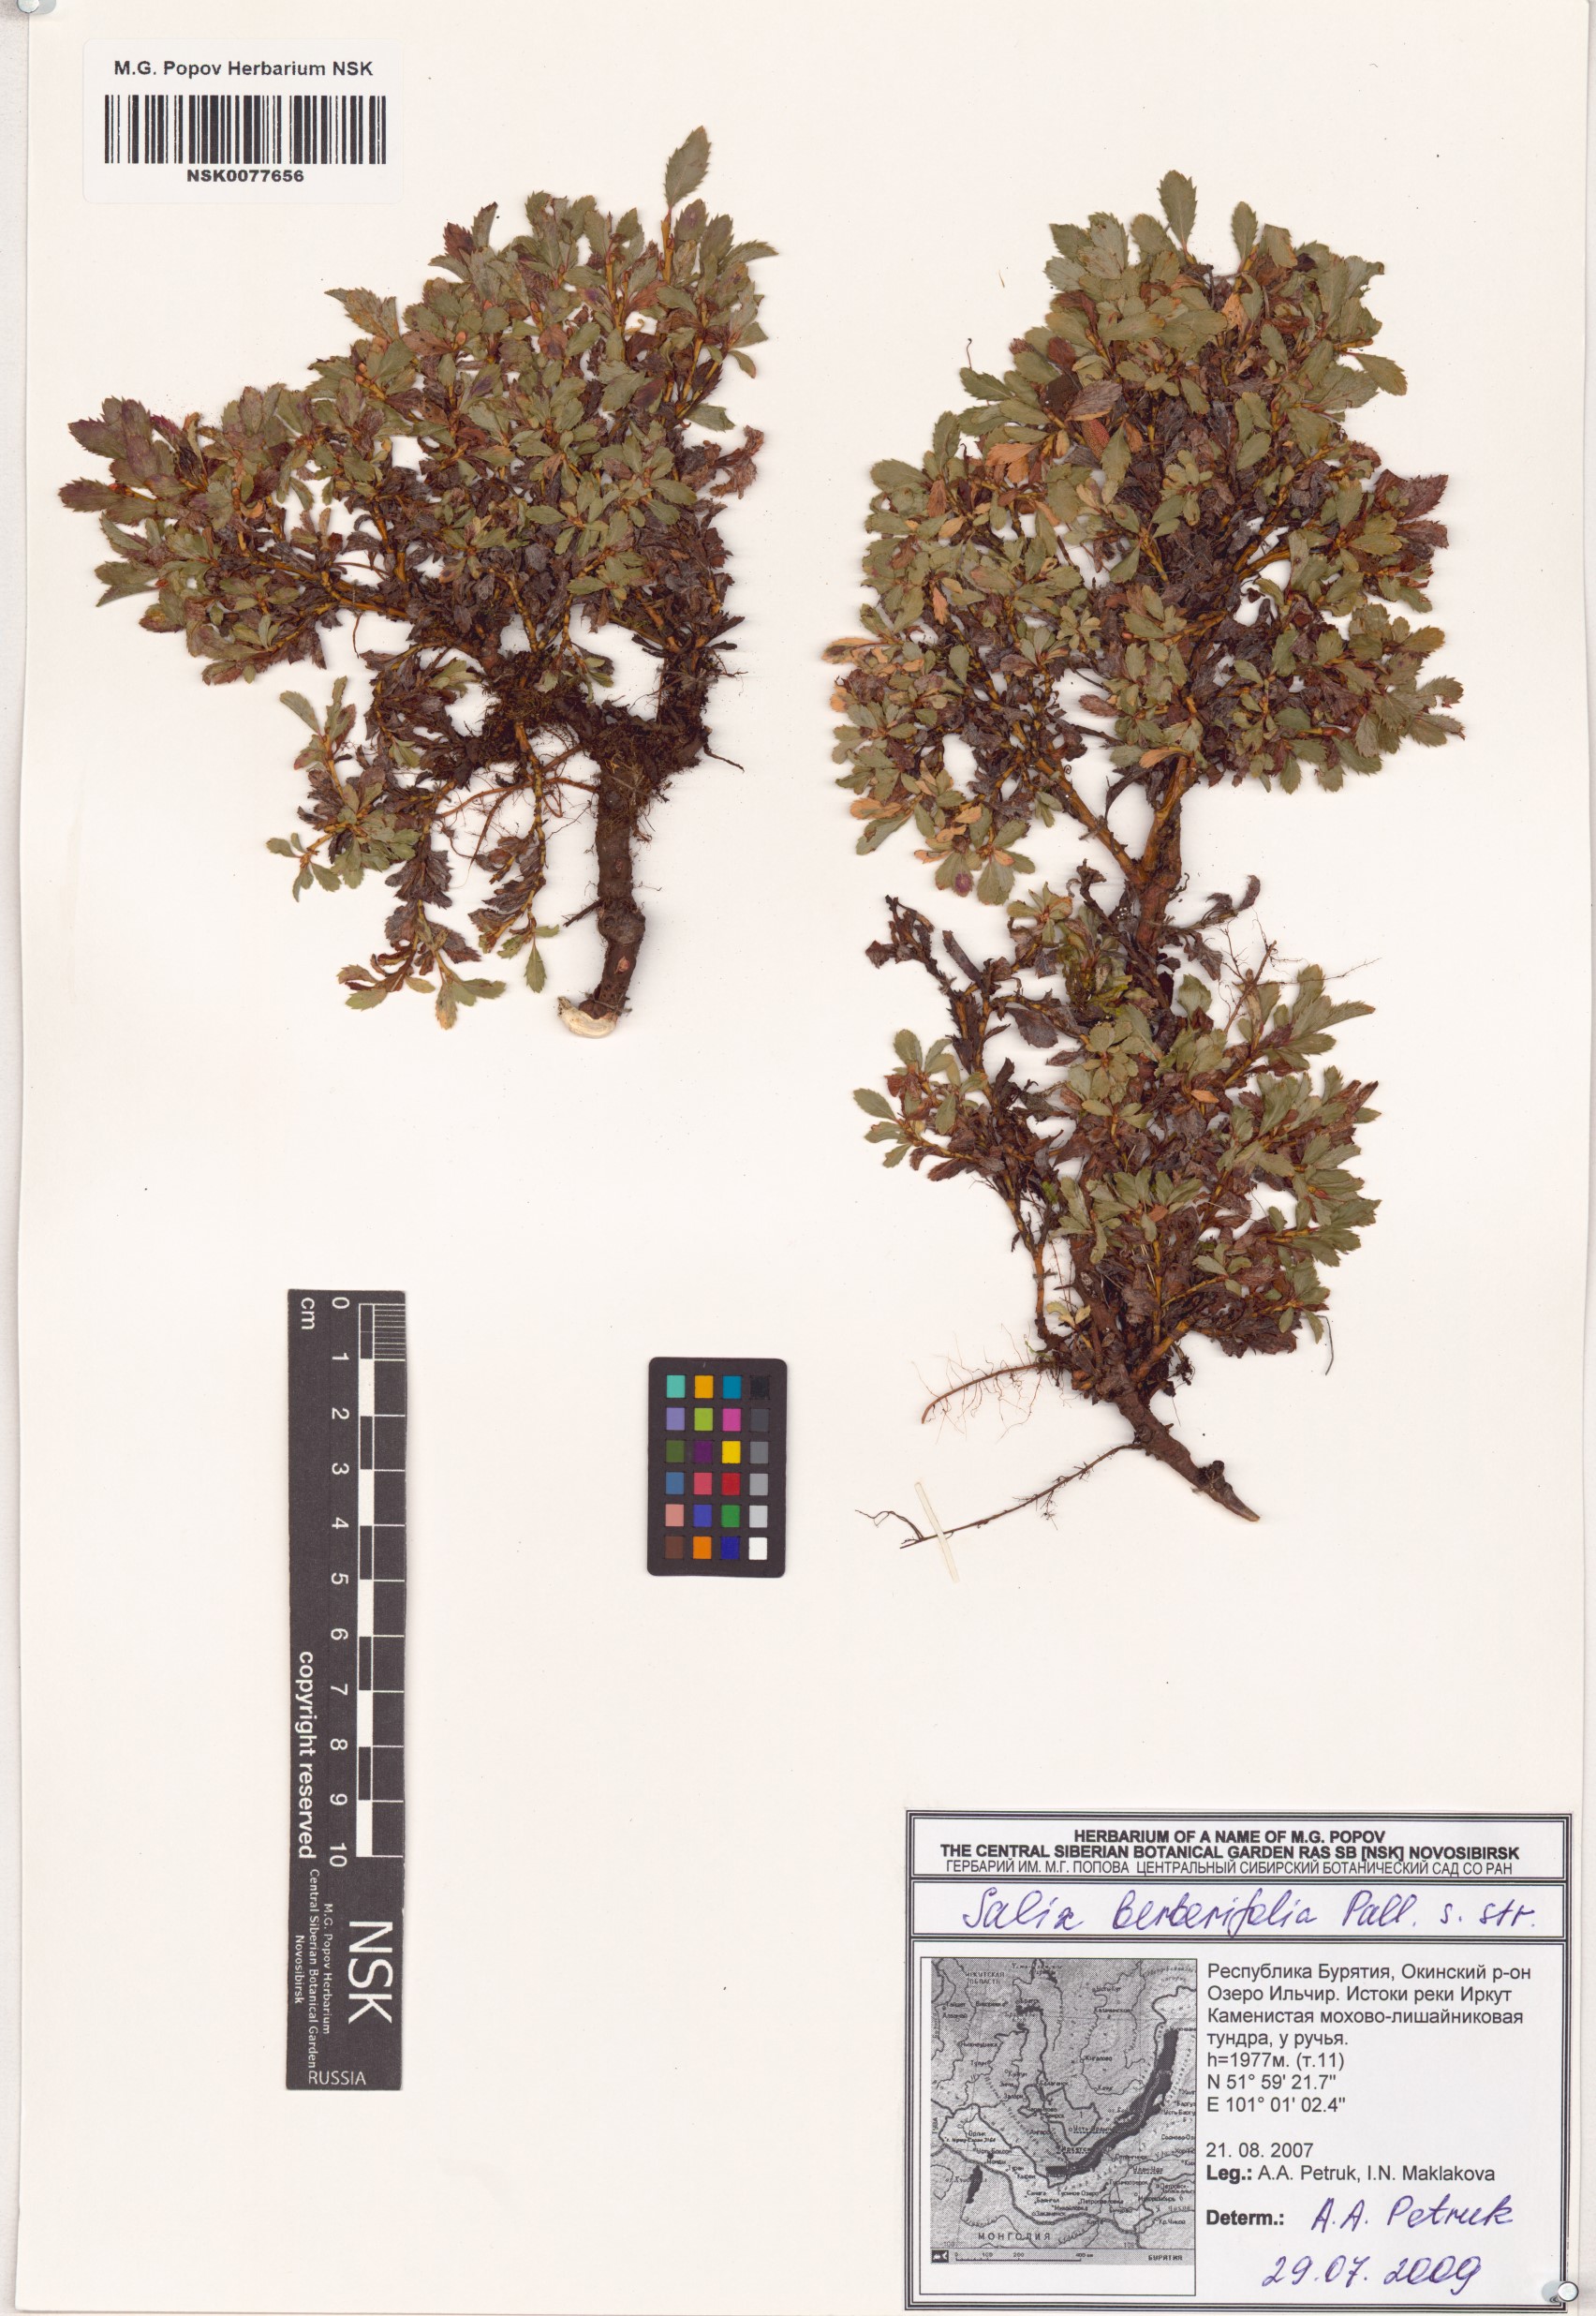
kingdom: Plantae
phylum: Tracheophyta
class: Magnoliopsida
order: Malpighiales
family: Salicaceae
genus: Salix
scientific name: Salix berberifolia
